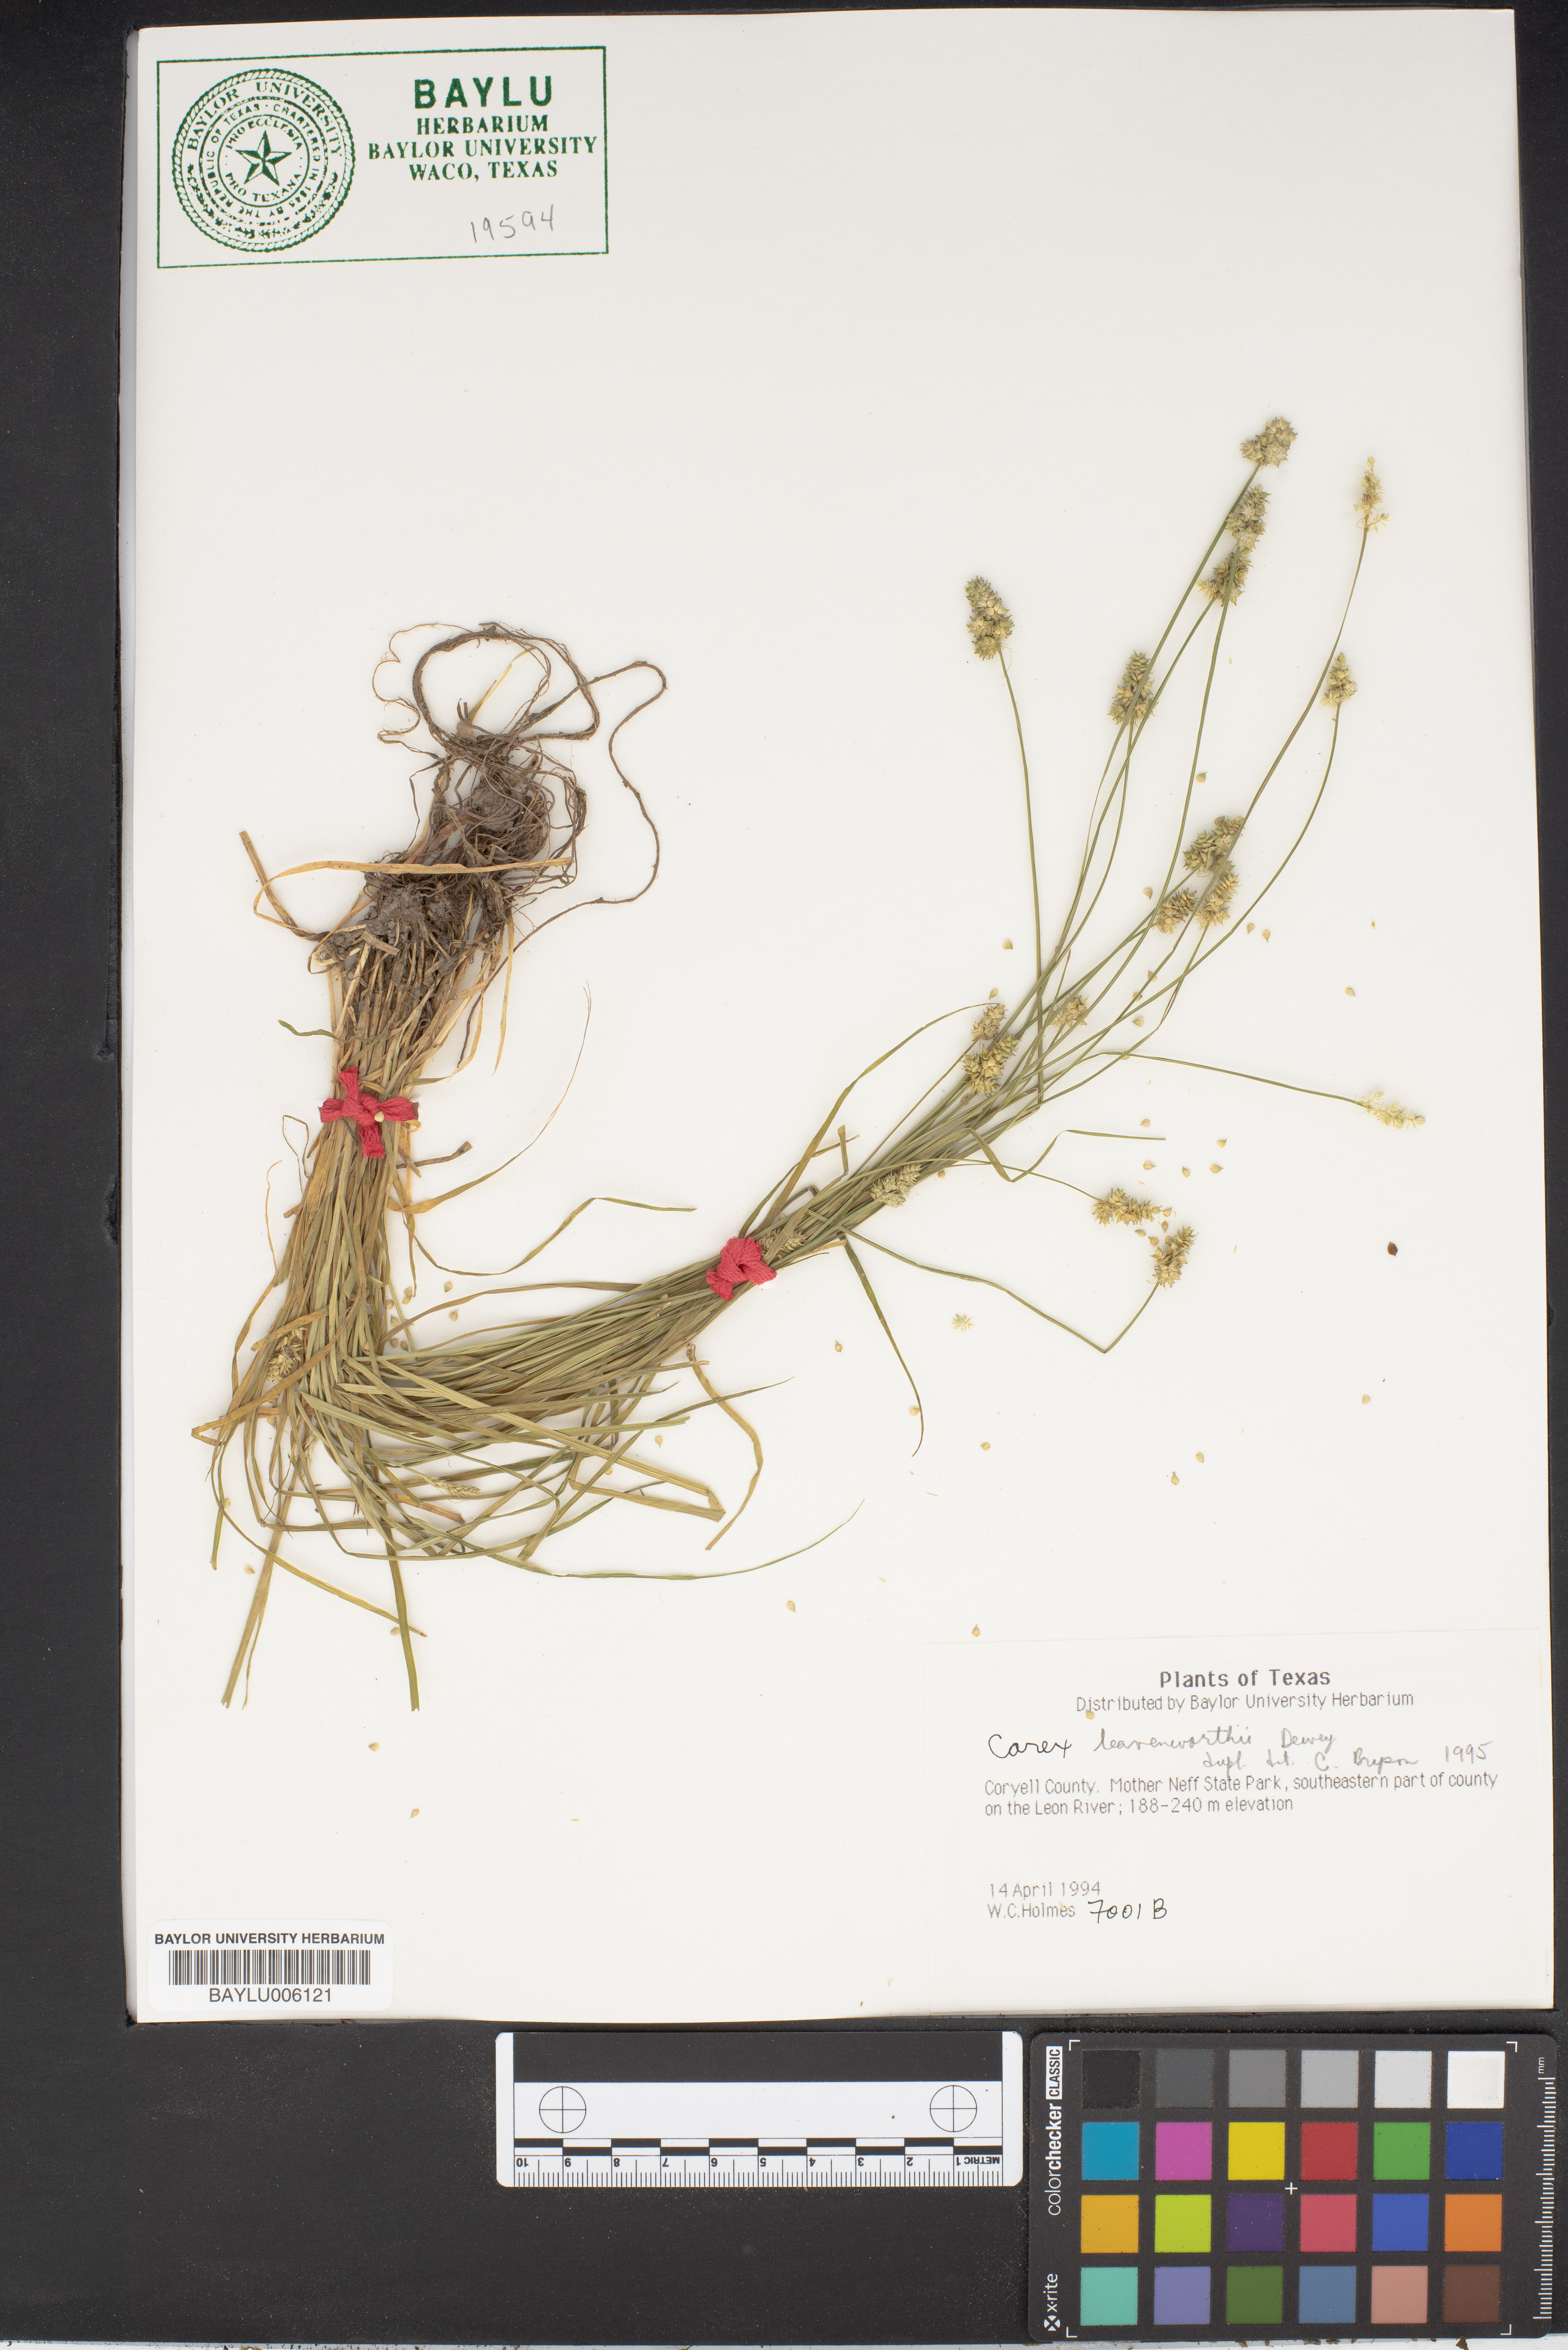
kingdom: Plantae
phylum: Tracheophyta
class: Liliopsida
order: Poales
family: Cyperaceae
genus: Carex
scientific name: Carex leavenworthii
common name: Leavenworth's bracted sedge
